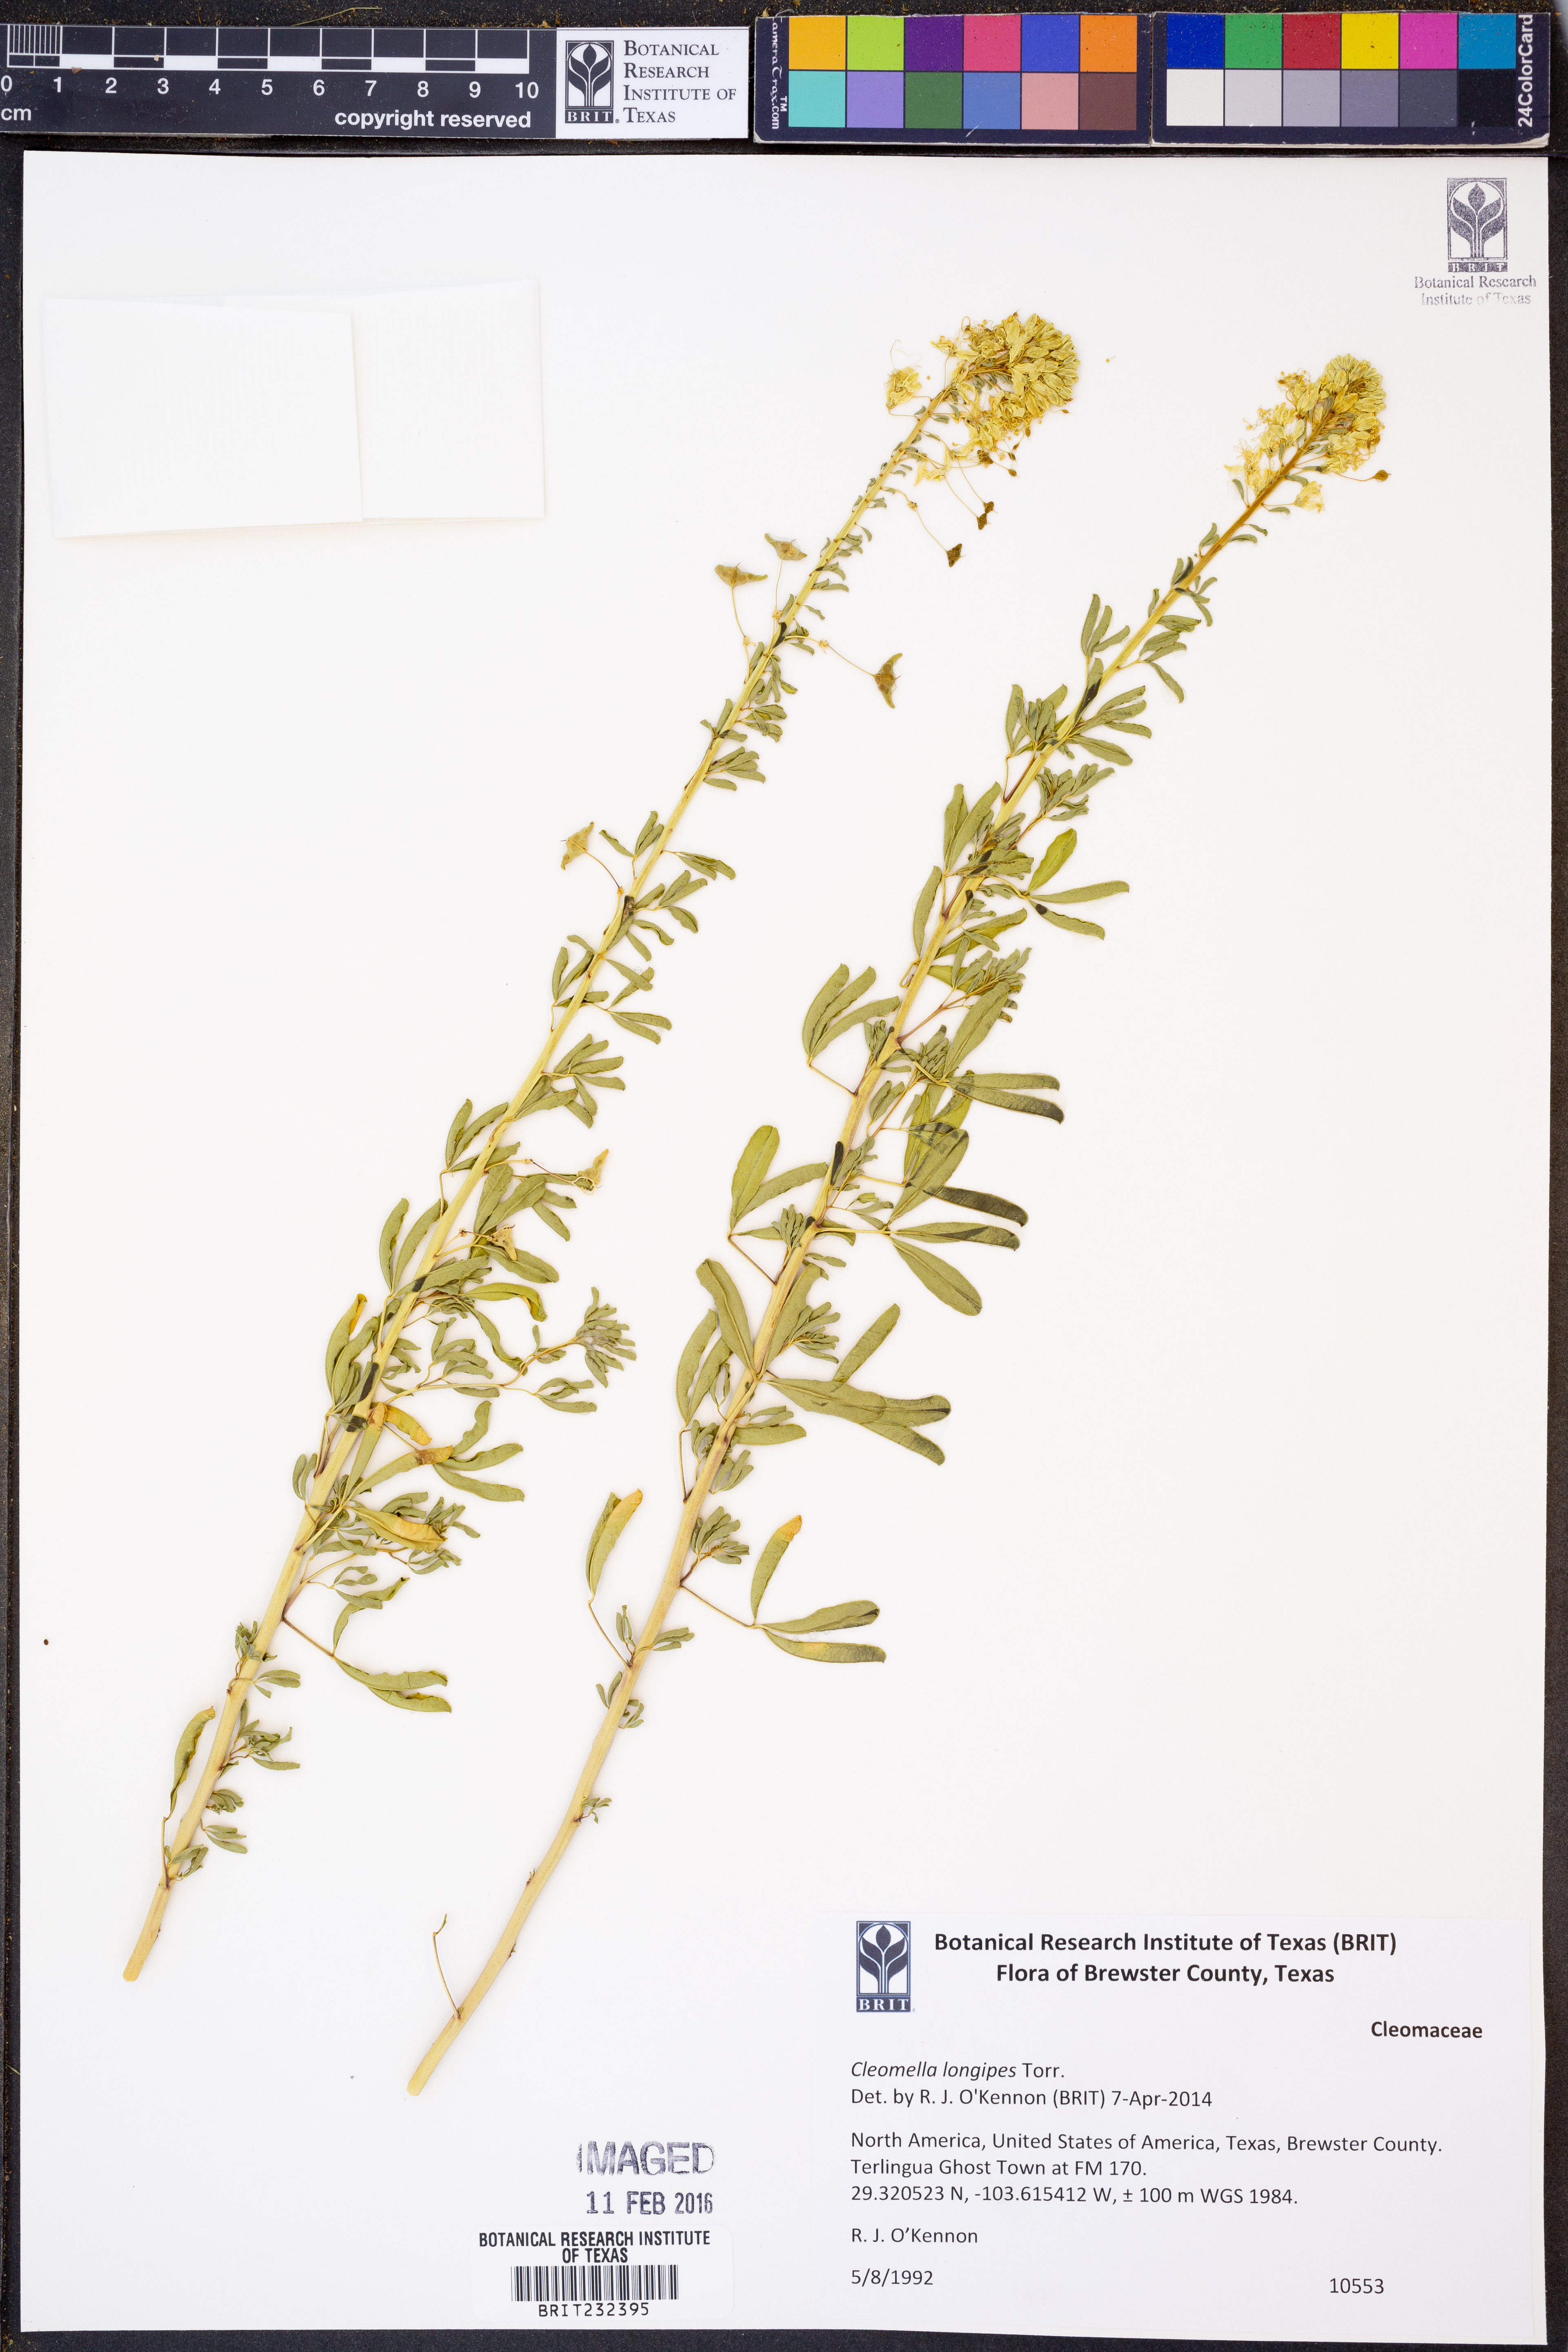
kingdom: Plantae
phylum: Tracheophyta
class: Magnoliopsida
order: Brassicales
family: Cleomaceae
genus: Cleomella
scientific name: Cleomella longipes
